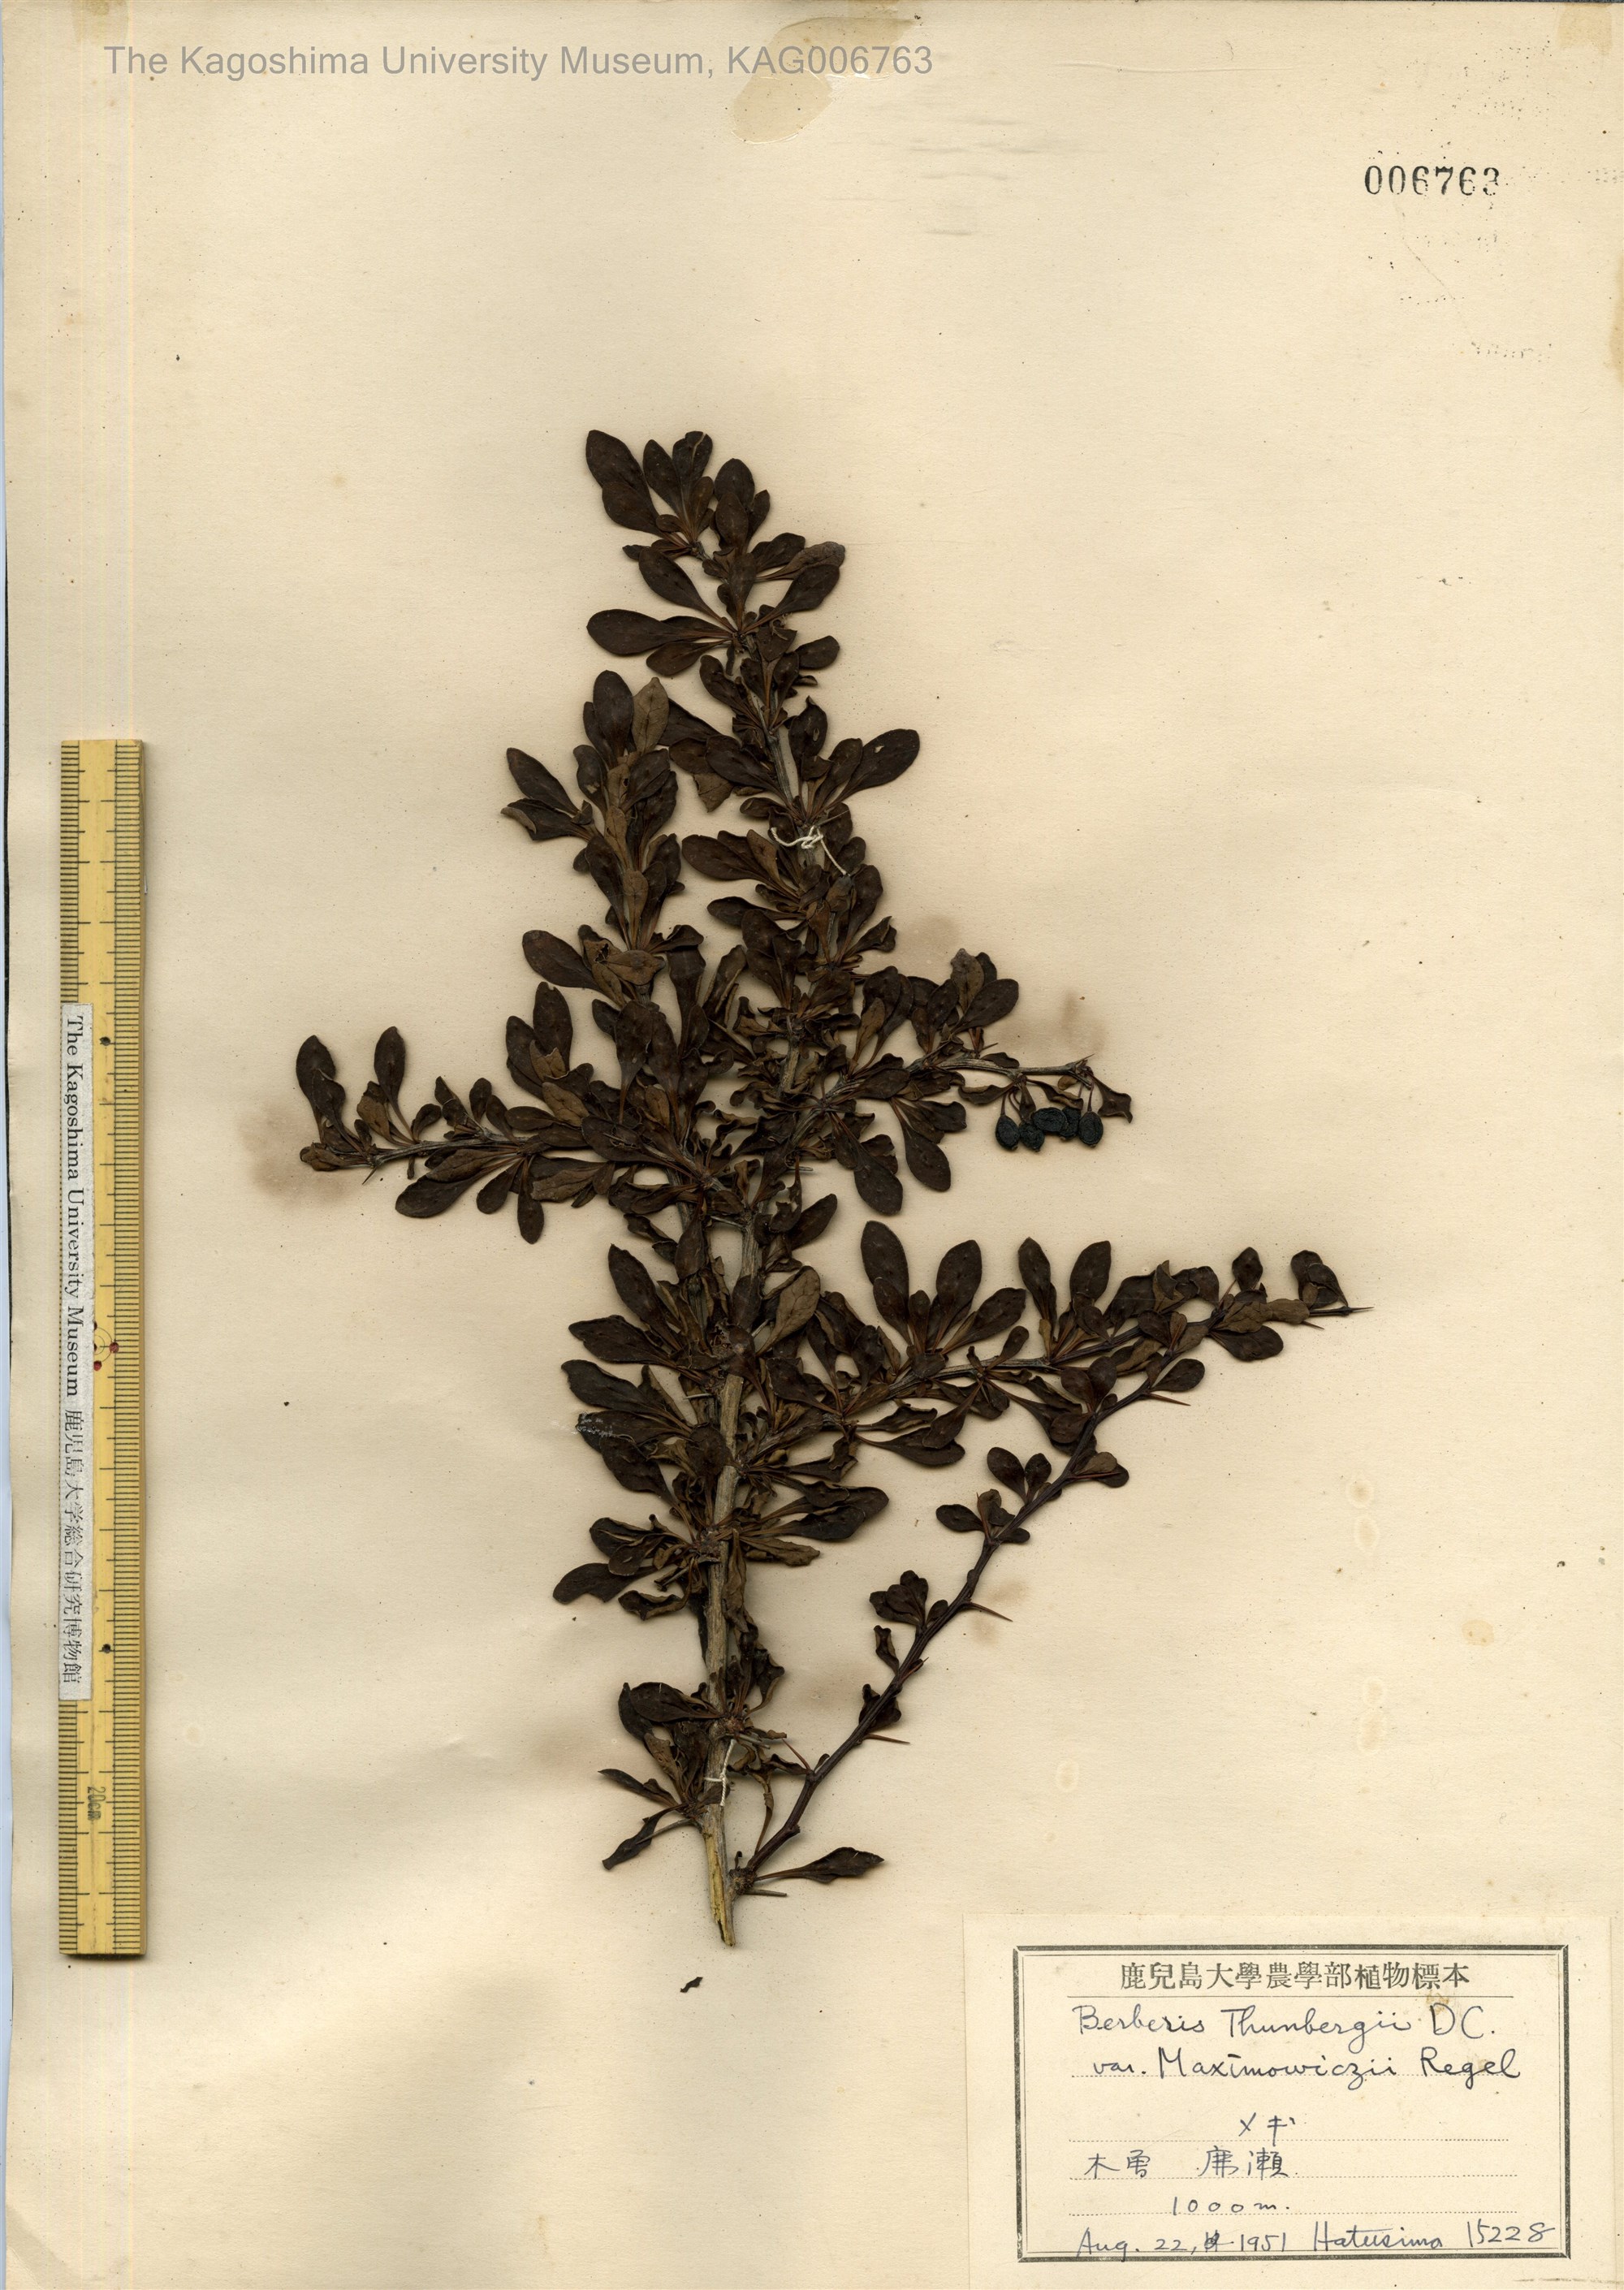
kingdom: Plantae
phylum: Tracheophyta
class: Magnoliopsida
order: Ranunculales
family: Berberidaceae
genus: Berberis
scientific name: Berberis thunbergii
